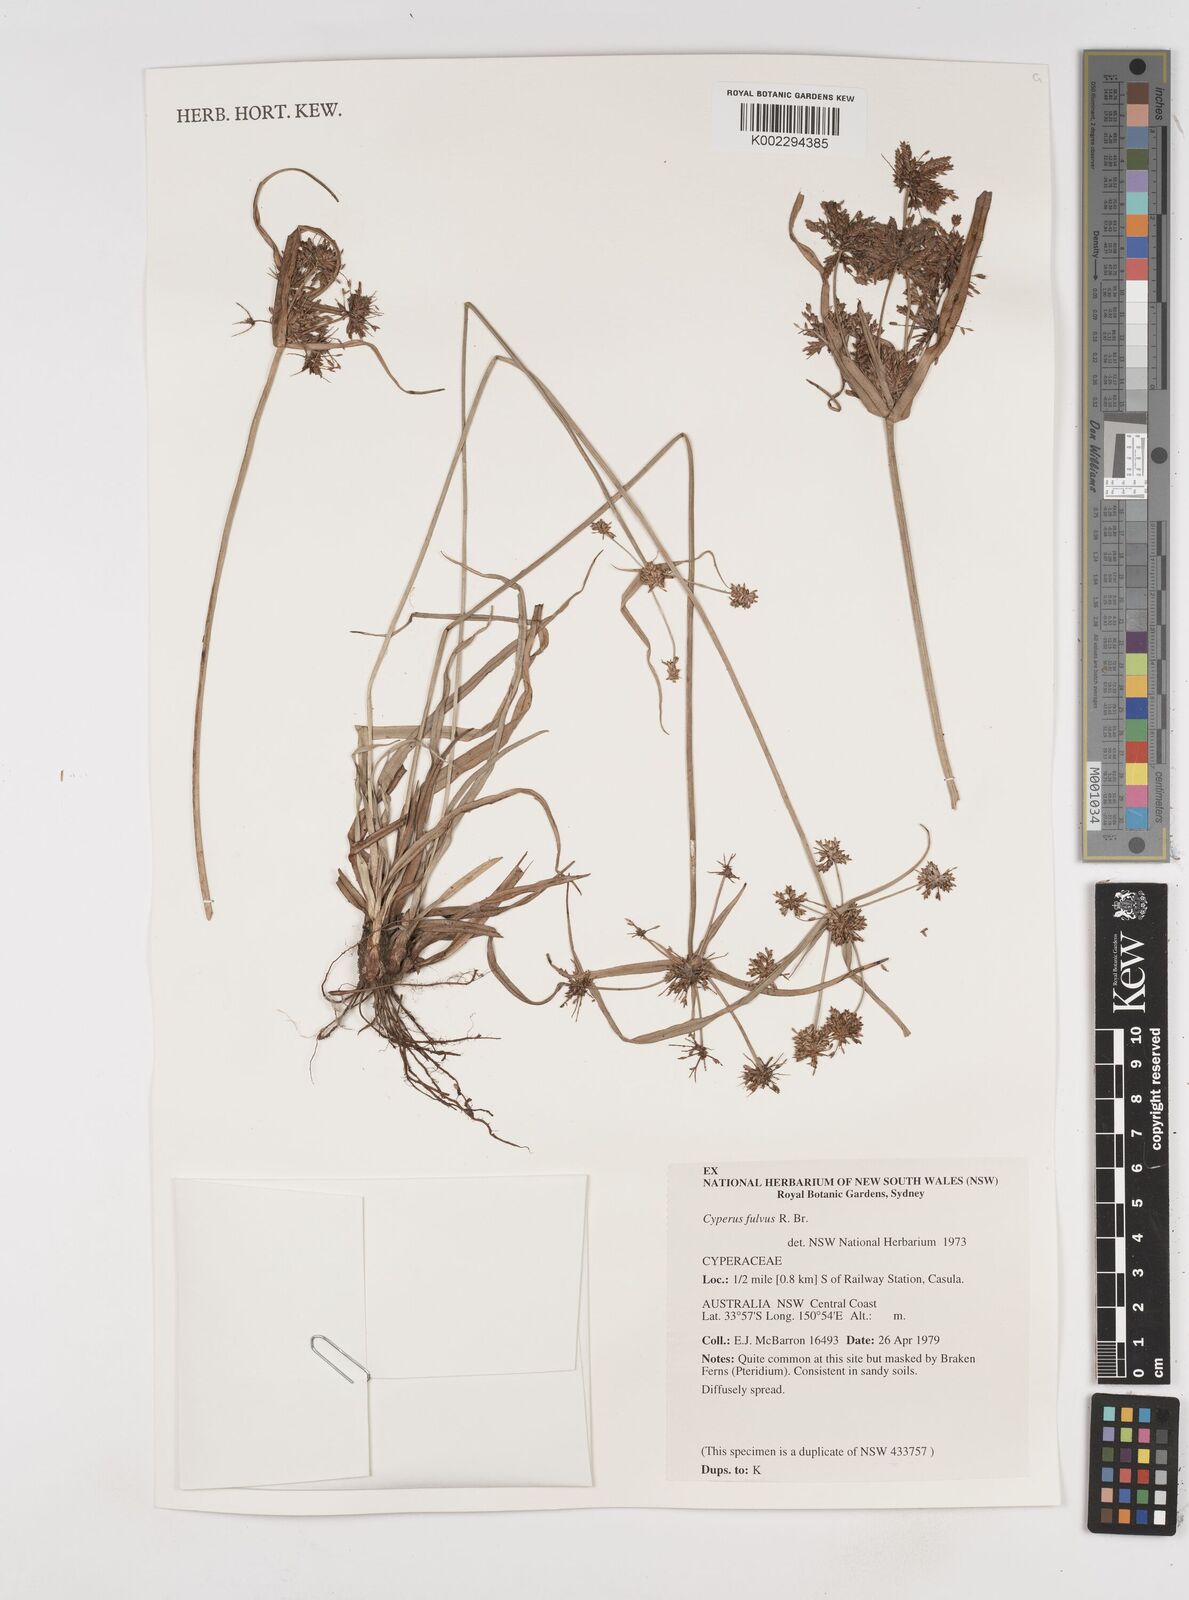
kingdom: Plantae
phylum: Tracheophyta
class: Liliopsida
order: Poales
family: Cyperaceae
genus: Cyperus
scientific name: Cyperus fulvus
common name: Sticky sedge
